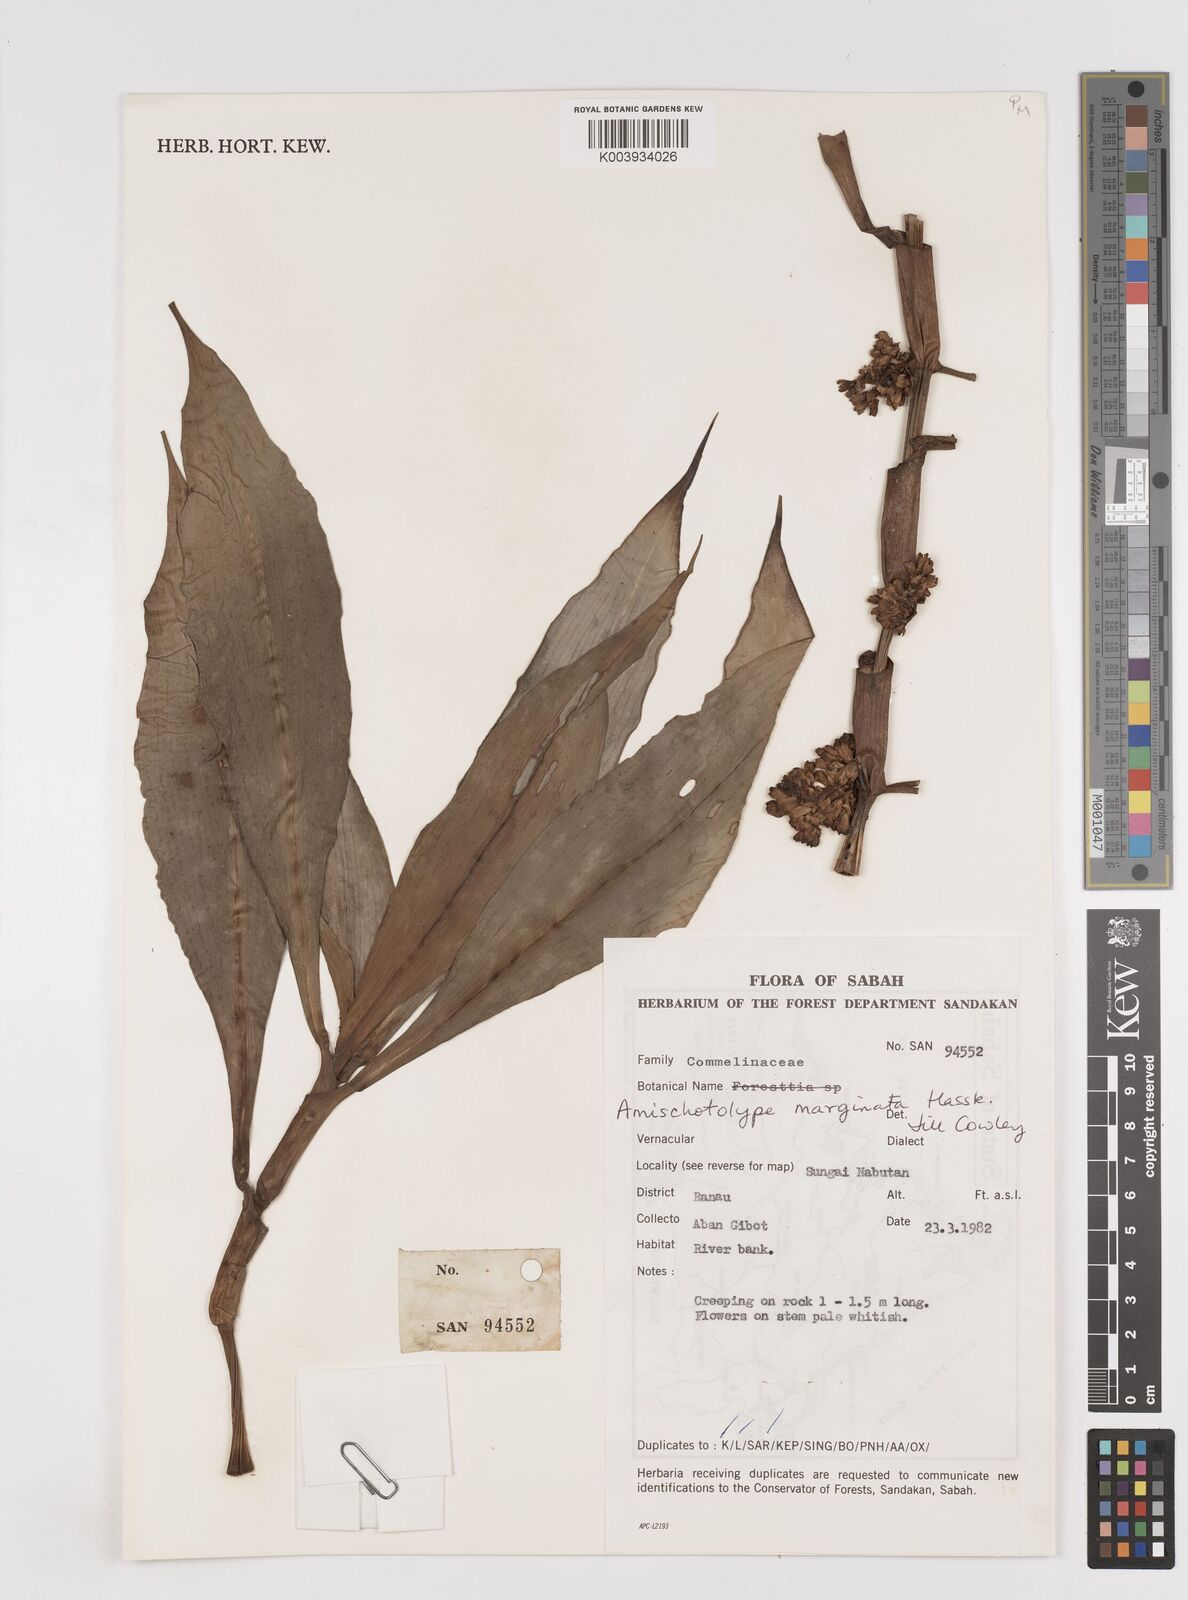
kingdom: Plantae
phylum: Tracheophyta
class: Liliopsida
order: Commelinales
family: Commelinaceae
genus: Amischotolype
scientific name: Amischotolype marginata
